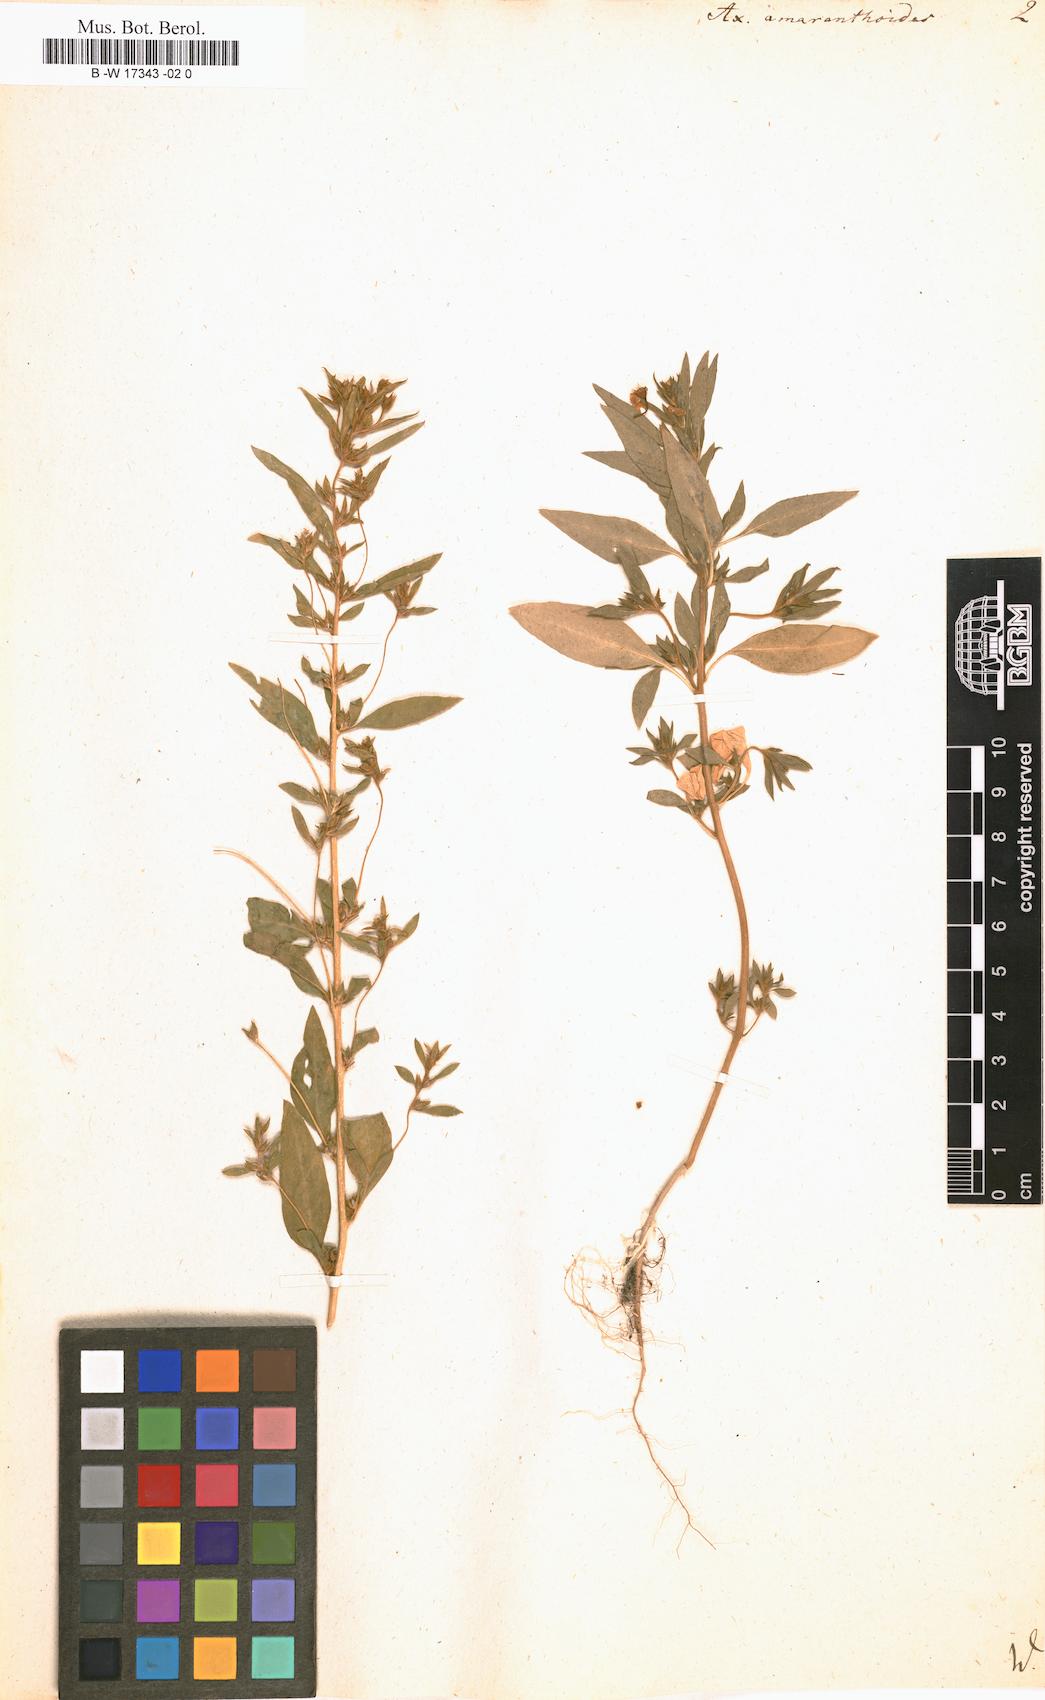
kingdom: Plantae
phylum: Tracheophyta
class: Magnoliopsida
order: Caryophyllales
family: Amaranthaceae
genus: Axyris
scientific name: Axyris amaranthoides
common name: Russian pigweed
